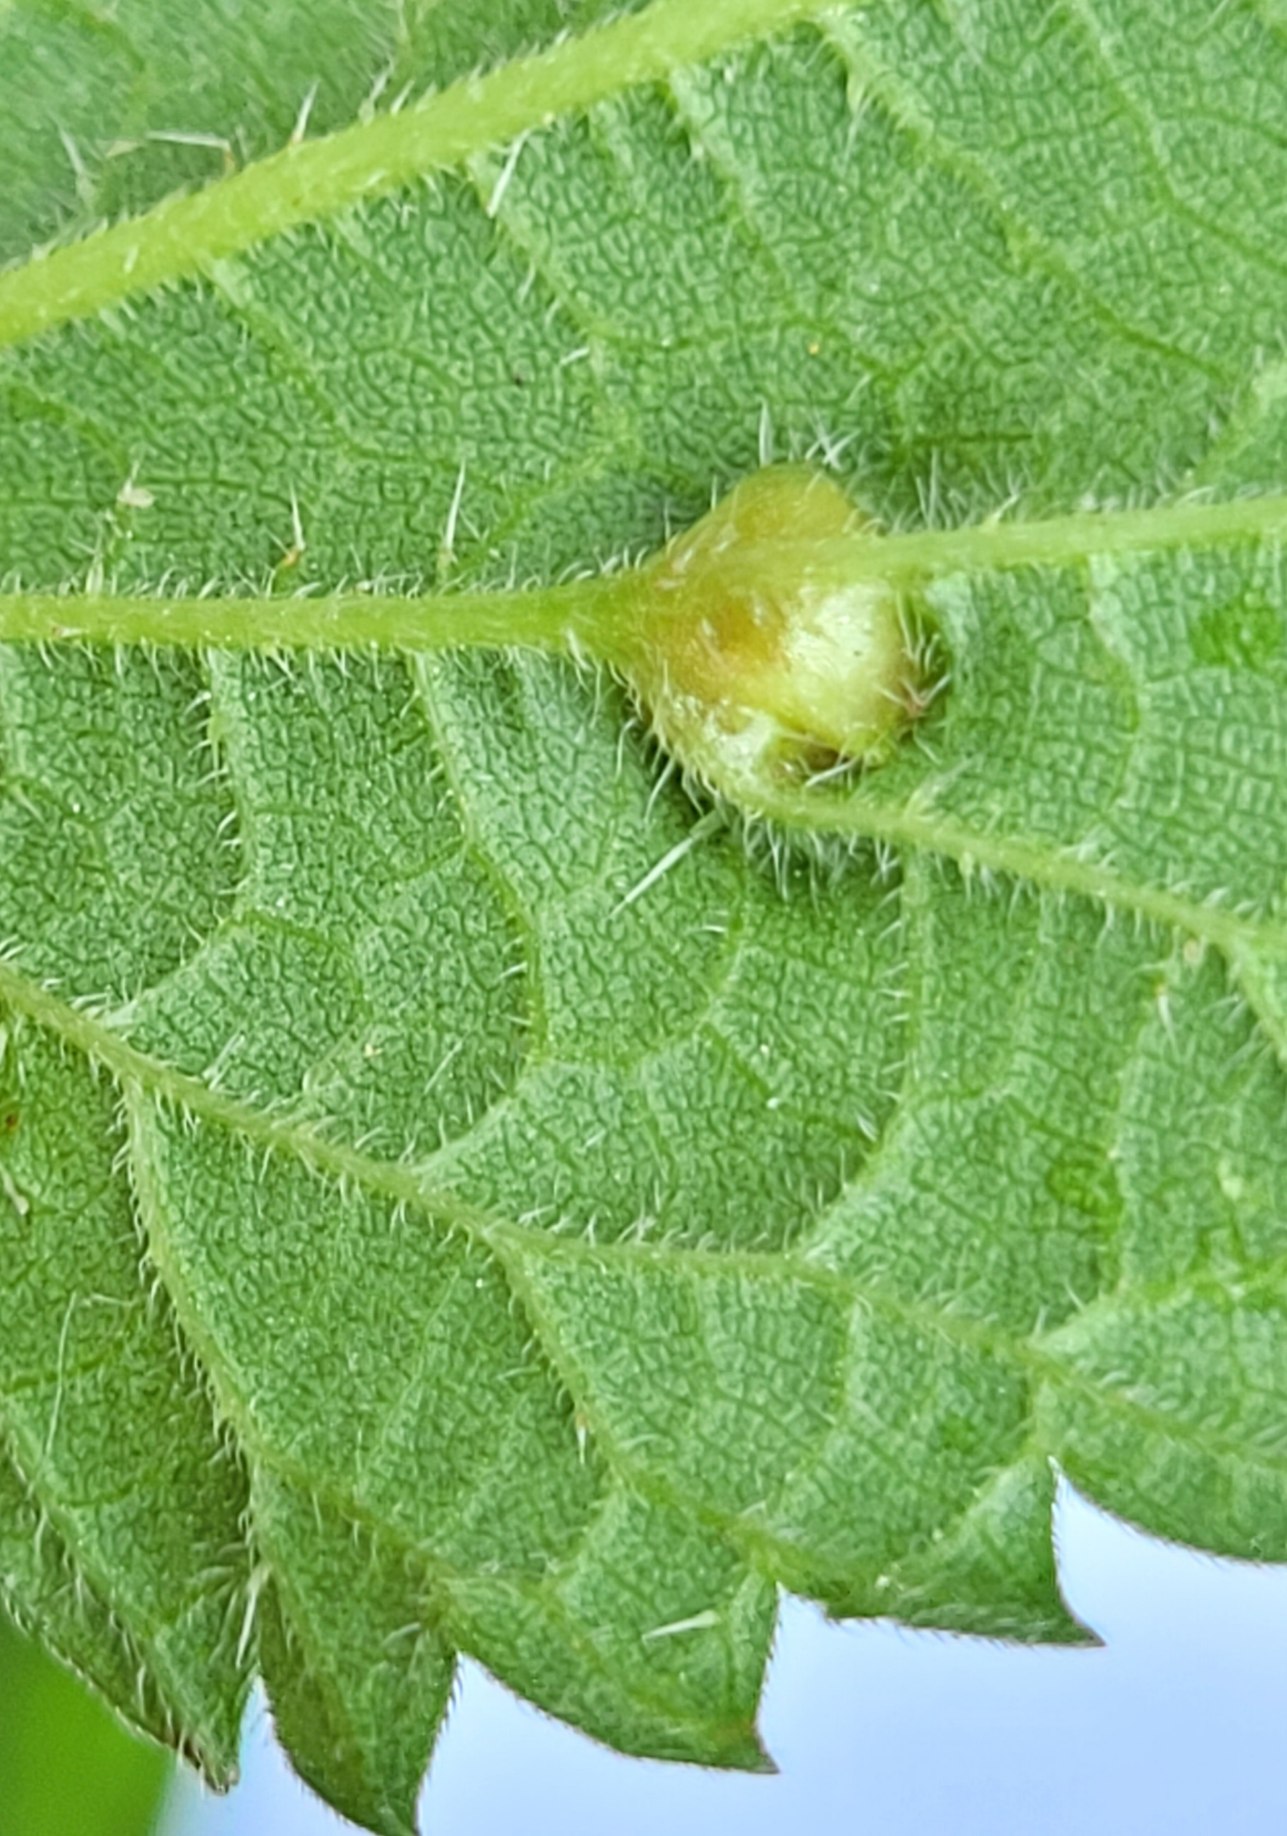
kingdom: Animalia
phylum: Arthropoda
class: Insecta
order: Diptera
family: Cecidomyiidae
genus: Dasineura
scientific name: Dasineura urticae
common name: Nældepunggalmyg
